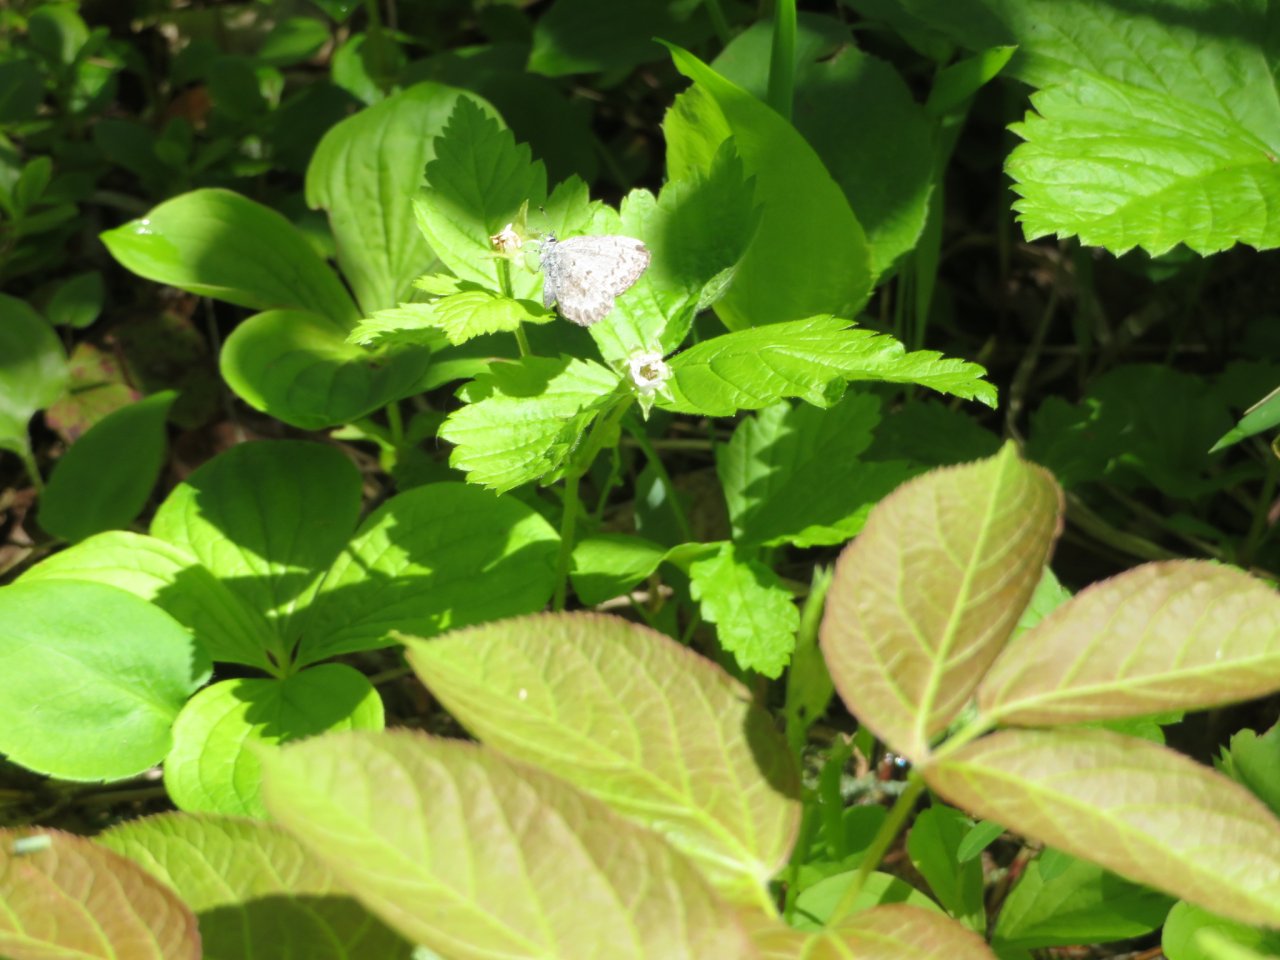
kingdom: Animalia
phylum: Arthropoda
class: Insecta
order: Lepidoptera
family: Lycaenidae
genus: Celastrina
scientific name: Celastrina ladon
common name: Spring Azure
